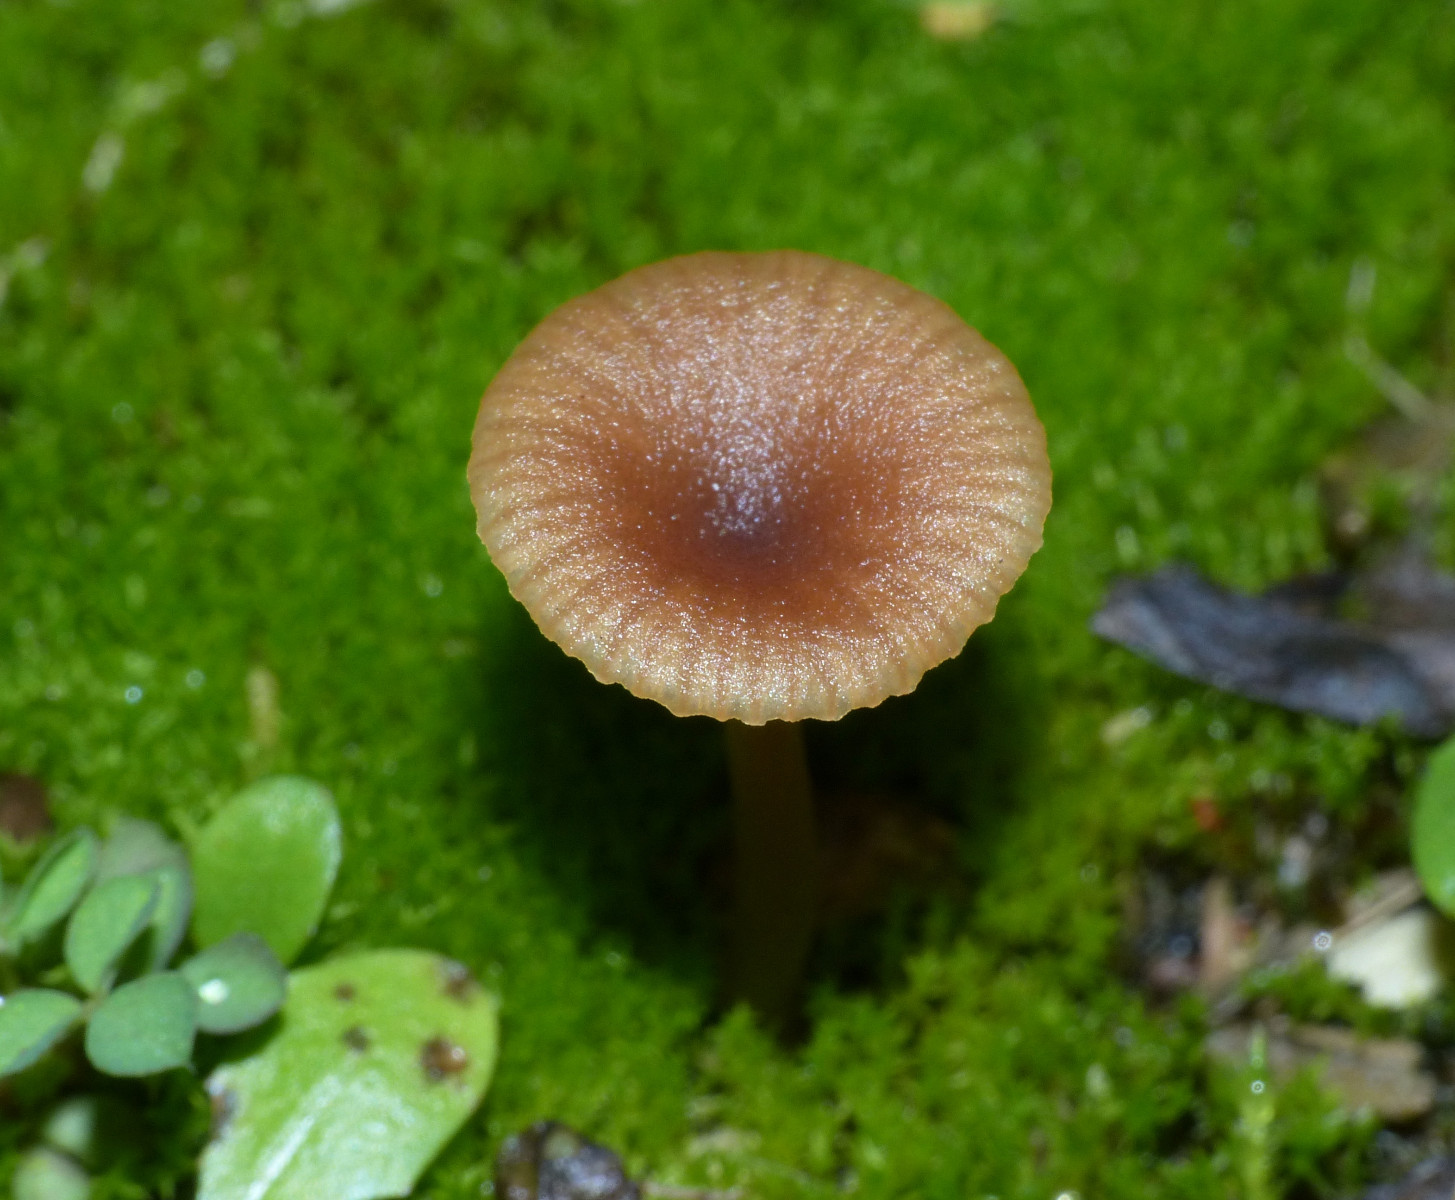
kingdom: Fungi
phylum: Basidiomycota
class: Agaricomycetes
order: Agaricales
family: Tricholomataceae
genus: Omphalina
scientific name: Omphalina pyxidata
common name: rødbrun navlehat
